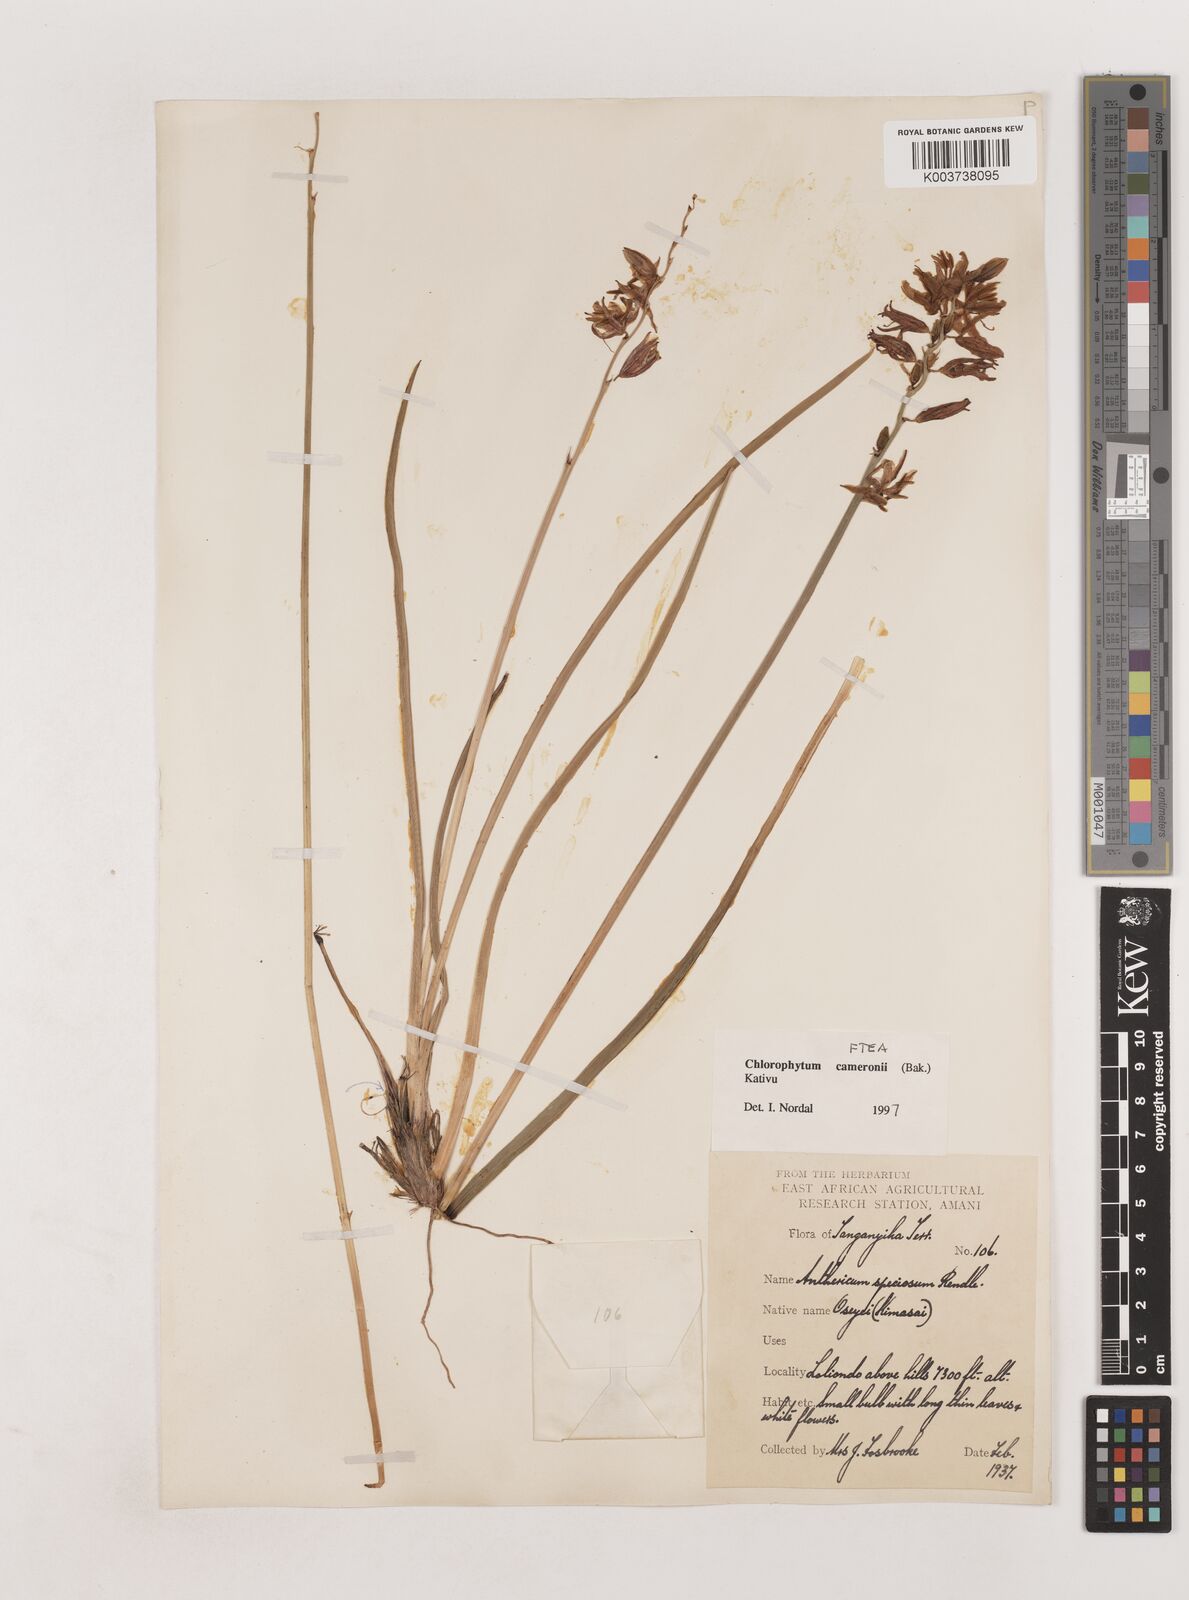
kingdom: Plantae
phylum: Tracheophyta
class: Liliopsida
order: Asparagales
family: Asparagaceae
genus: Chlorophytum
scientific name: Chlorophytum cameronii
